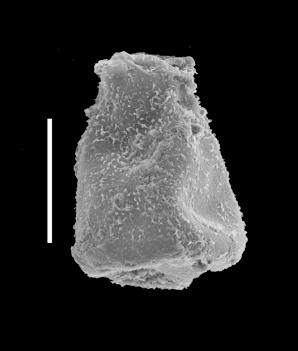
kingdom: Protozoa
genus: Belonechitina
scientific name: Belonechitina
